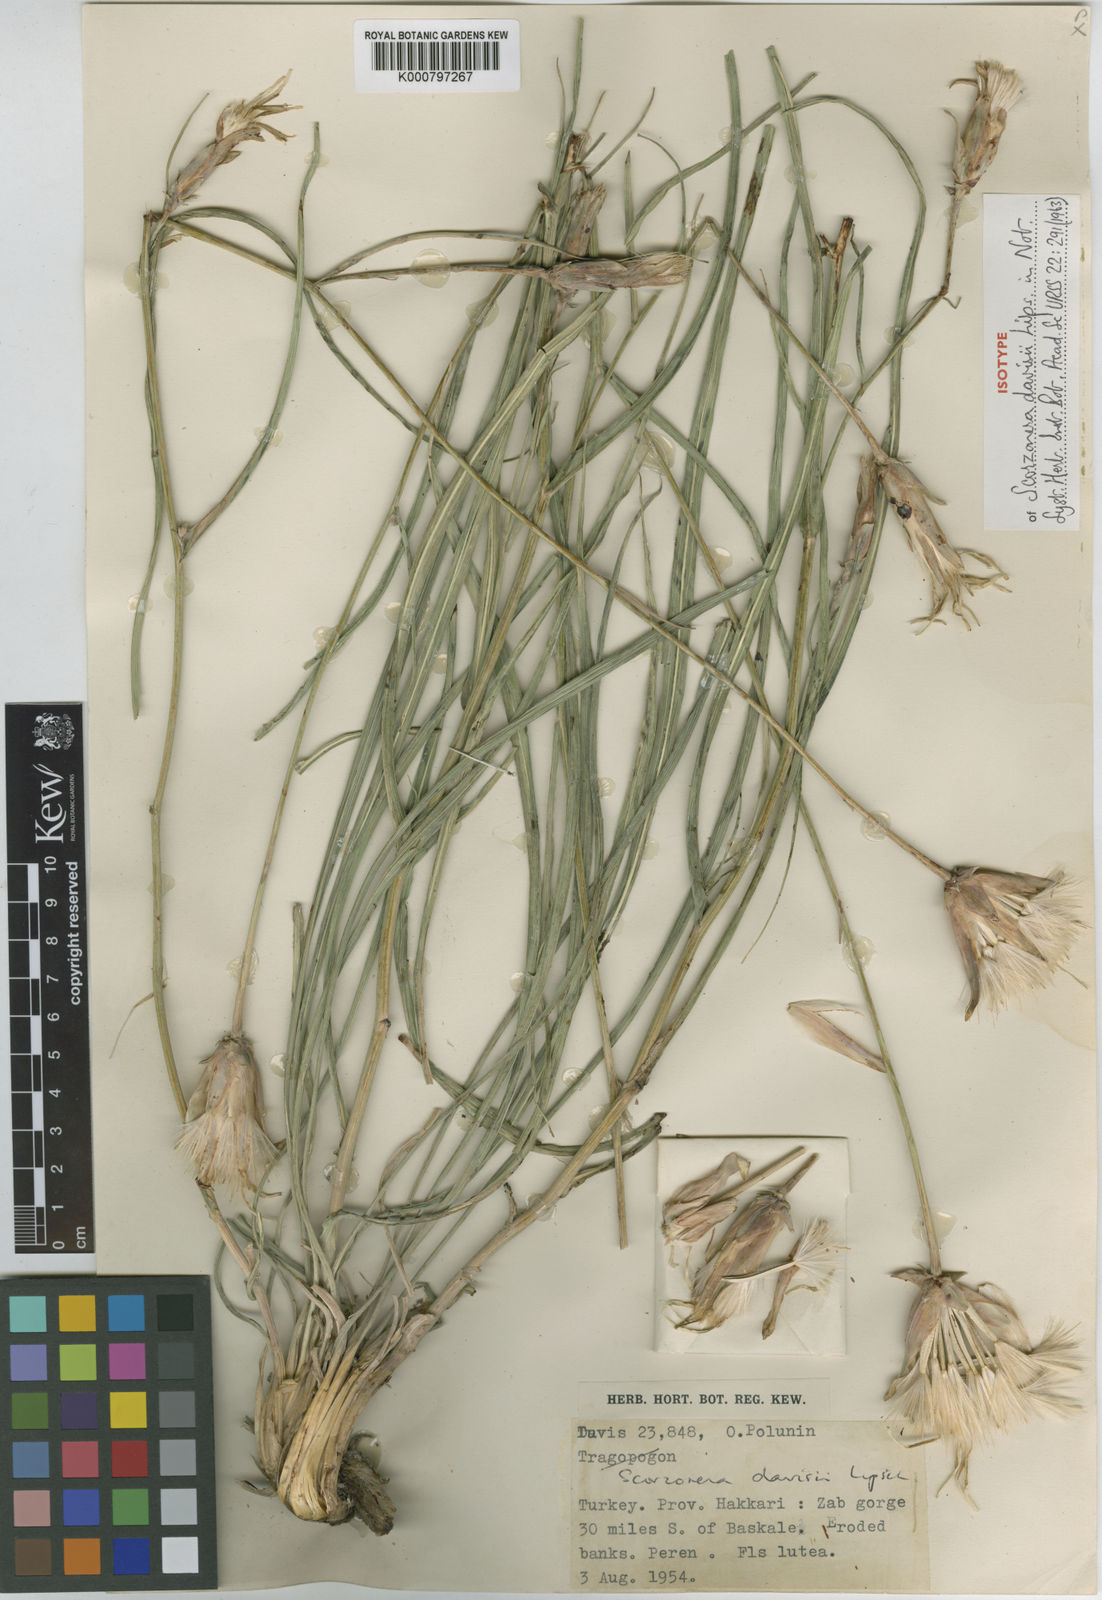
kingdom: Plantae
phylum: Tracheophyta
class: Magnoliopsida
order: Asterales
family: Asteraceae
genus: Candollea
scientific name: Candollea davisii
